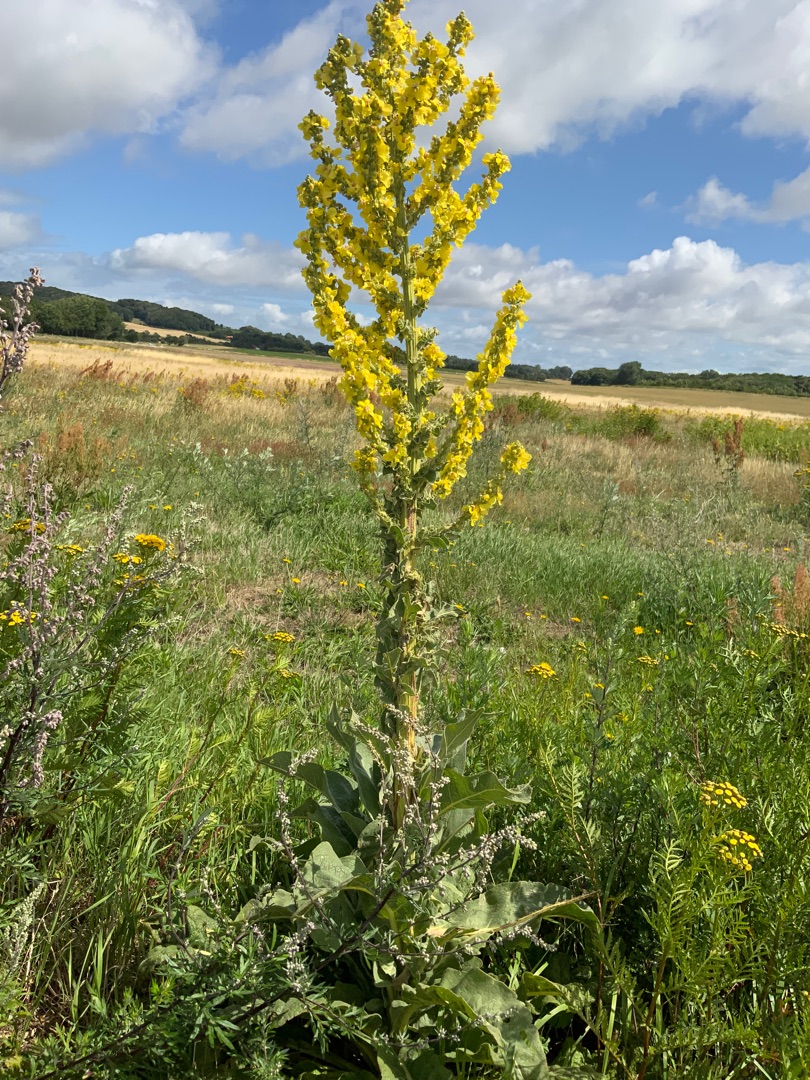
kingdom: Plantae
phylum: Tracheophyta
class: Magnoliopsida
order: Lamiales
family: Scrophulariaceae
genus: Verbascum
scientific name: Verbascum speciosum
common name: Kandelaber-kongelys
